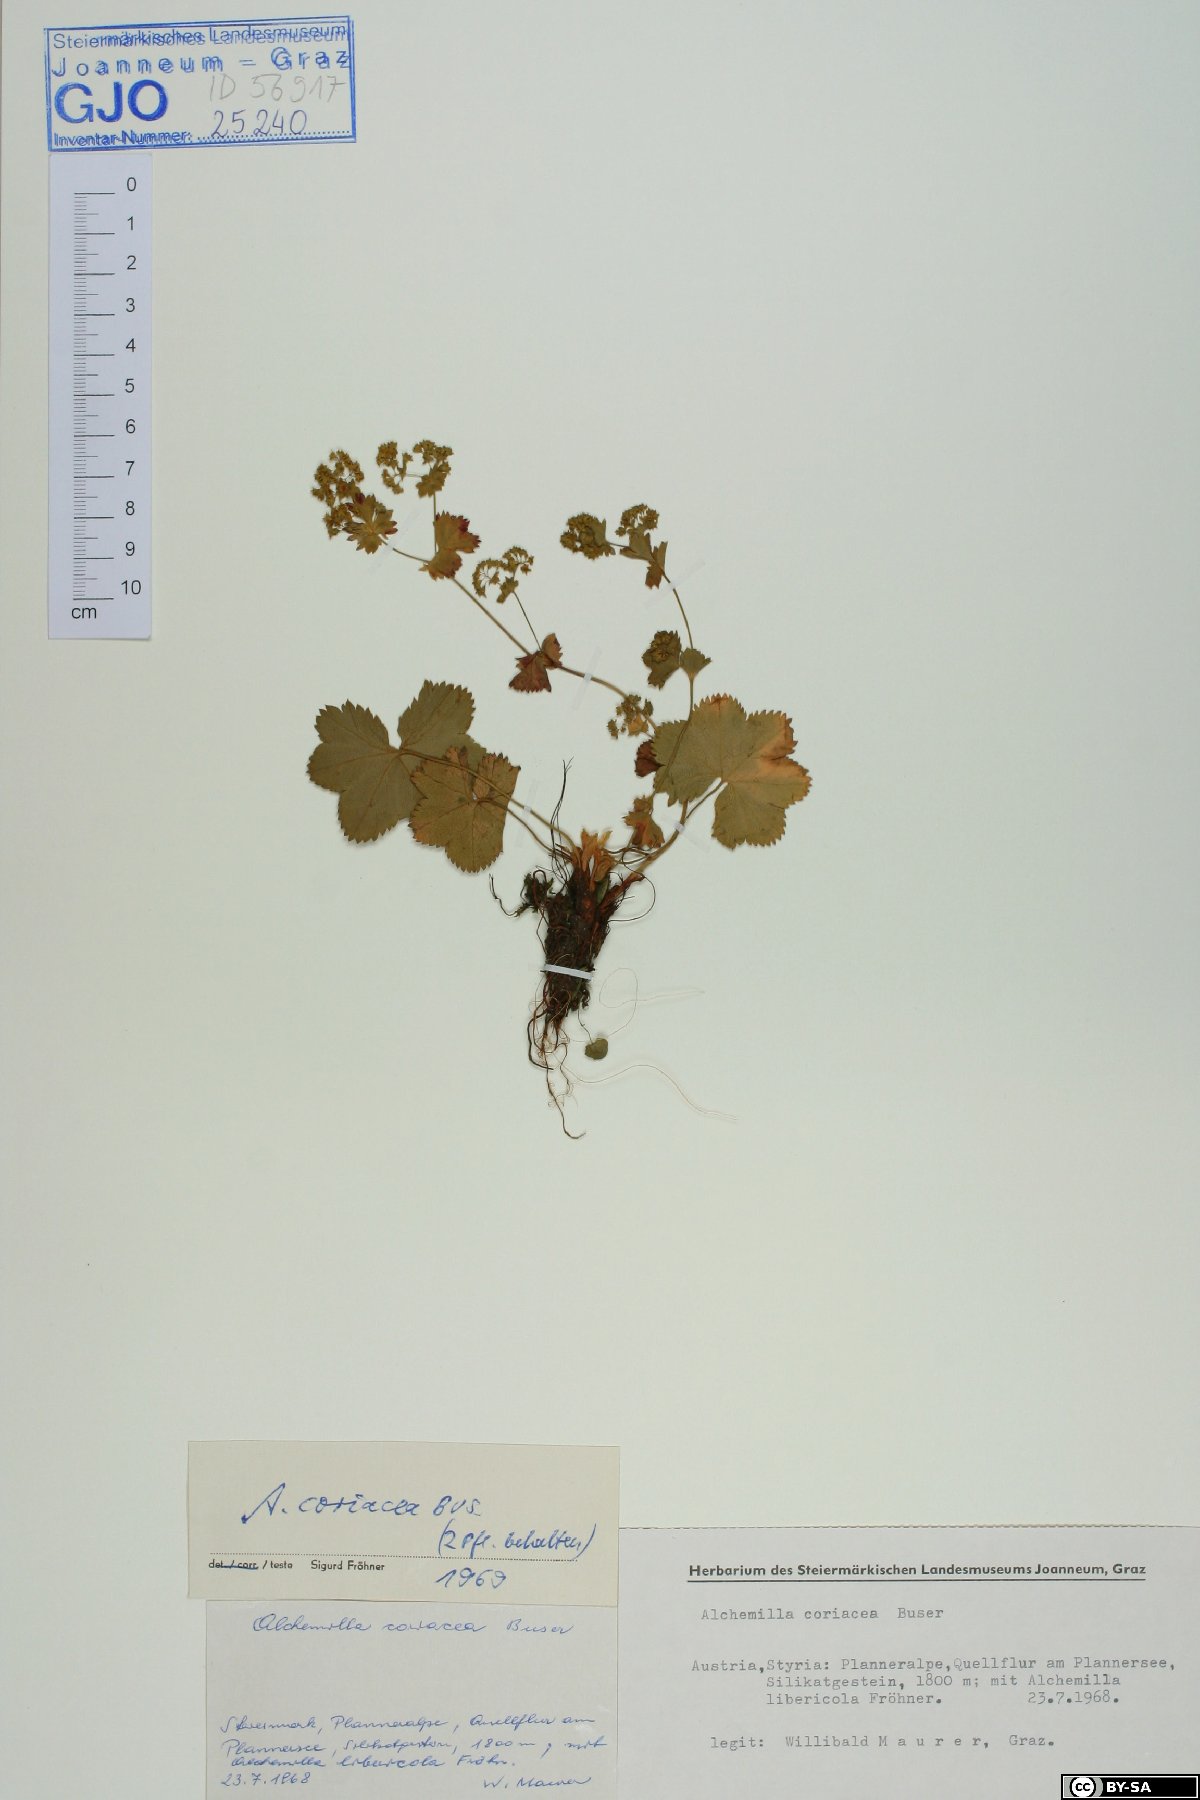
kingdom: Plantae
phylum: Tracheophyta
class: Magnoliopsida
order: Rosales
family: Rosaceae
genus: Alchemilla
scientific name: Alchemilla coriacea
